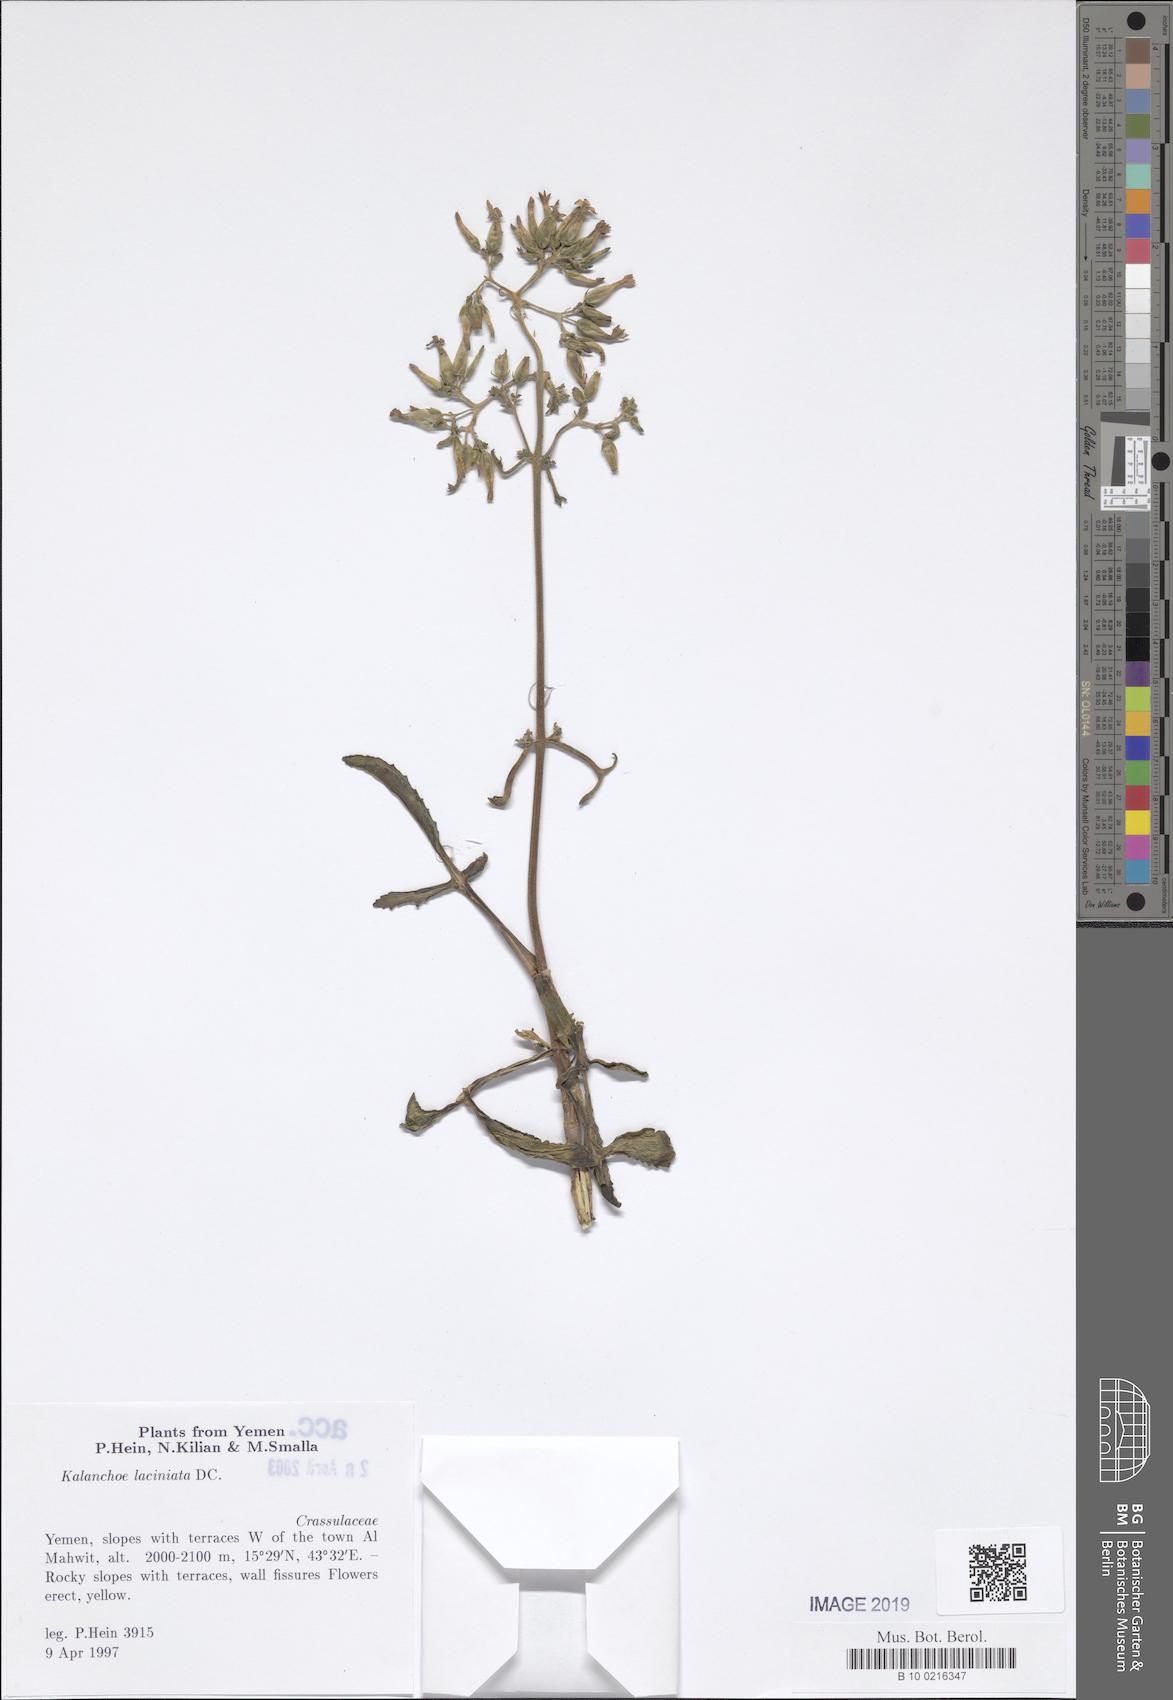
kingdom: Plantae
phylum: Tracheophyta
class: Magnoliopsida
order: Saxifragales
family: Crassulaceae
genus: Kalanchoe
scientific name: Kalanchoe laciniata
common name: Christmastree plant
